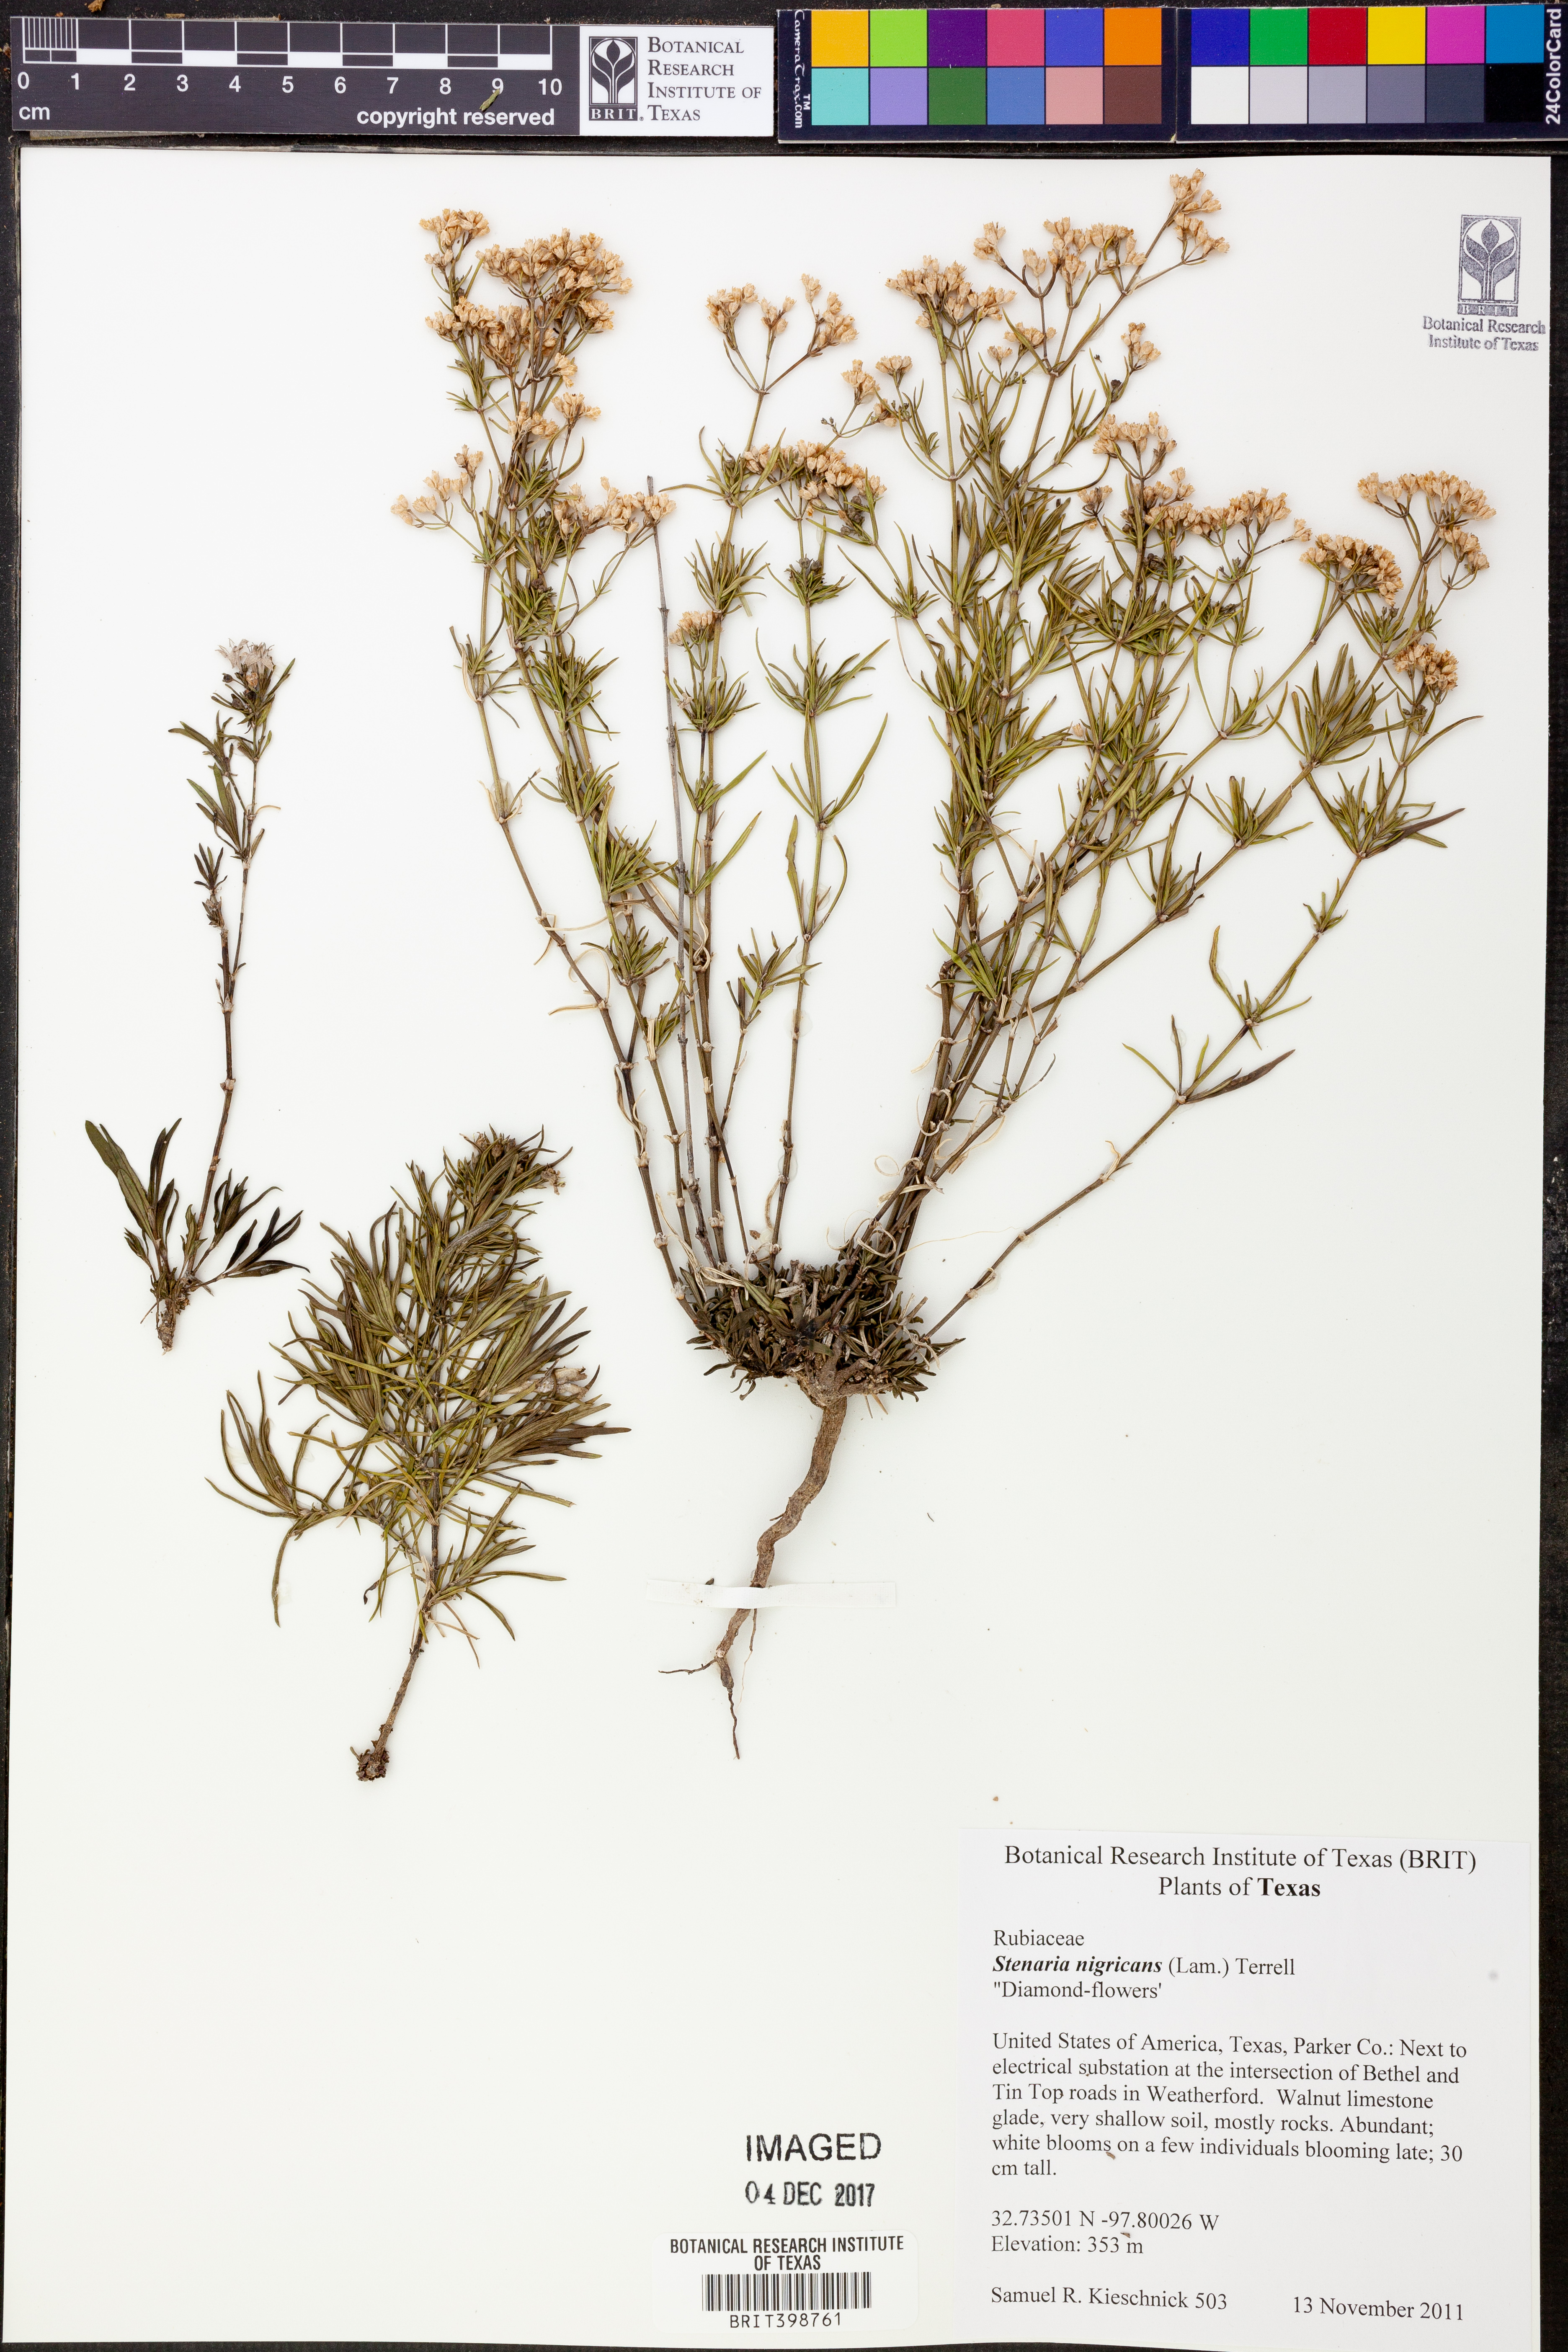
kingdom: Plantae
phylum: Tracheophyta
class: Magnoliopsida
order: Gentianales
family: Rubiaceae
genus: Stenaria
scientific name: Stenaria nigricans
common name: Diamondflowers
